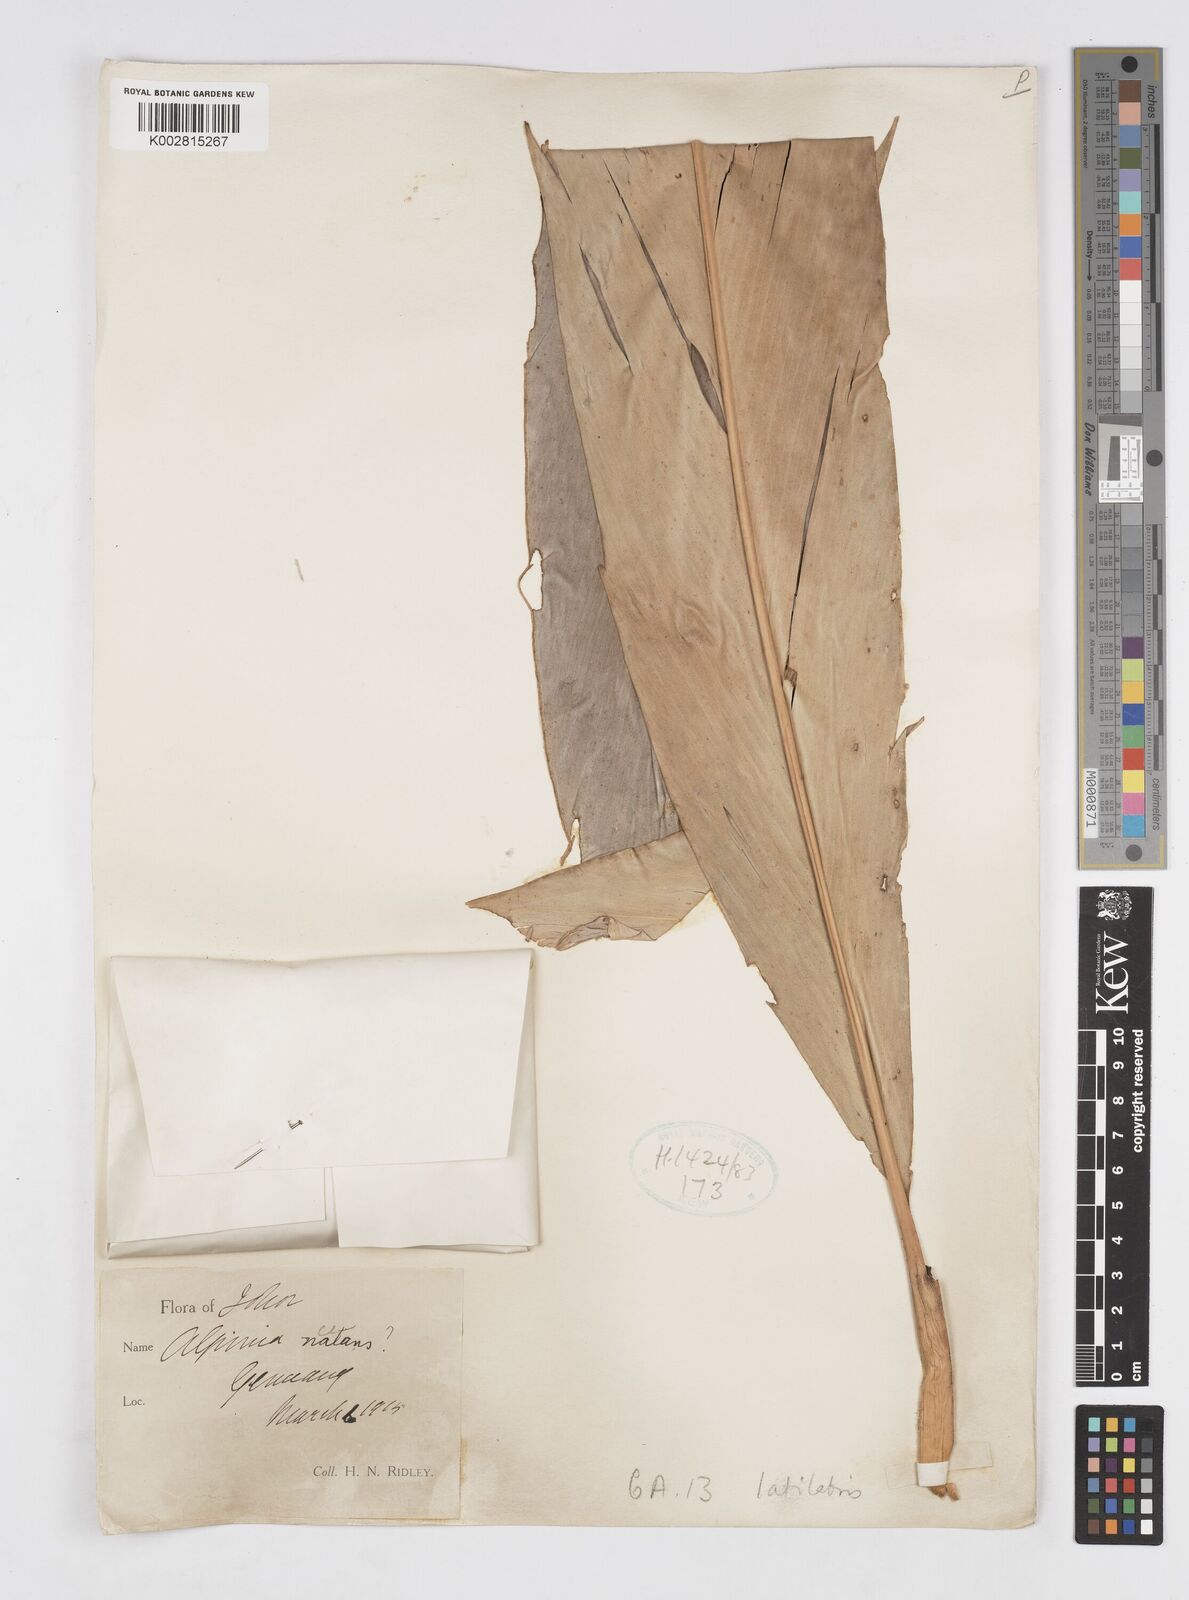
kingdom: Plantae
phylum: Tracheophyta
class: Liliopsida
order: Zingiberales
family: Zingiberaceae
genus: Alpinia
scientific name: Alpinia latilabris
